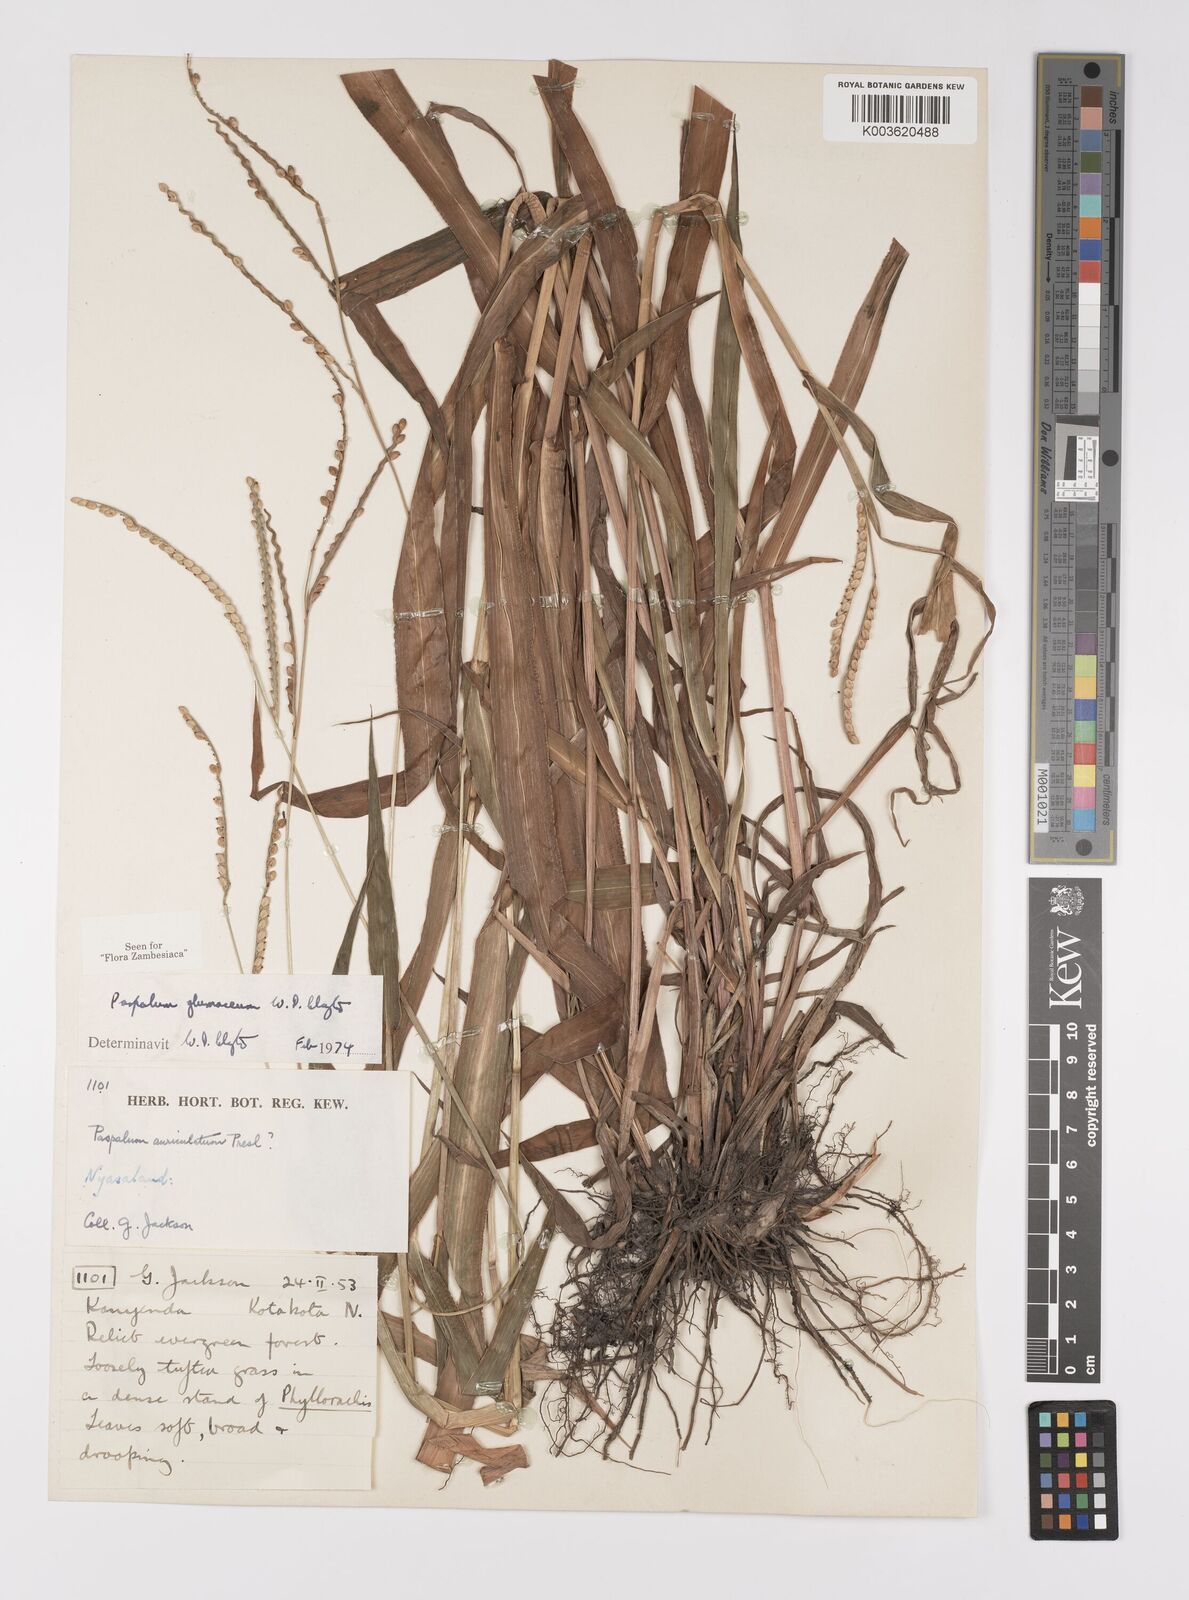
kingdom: Plantae
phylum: Tracheophyta
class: Liliopsida
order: Poales
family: Poaceae
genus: Paspalum
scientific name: Paspalum glumaceum
